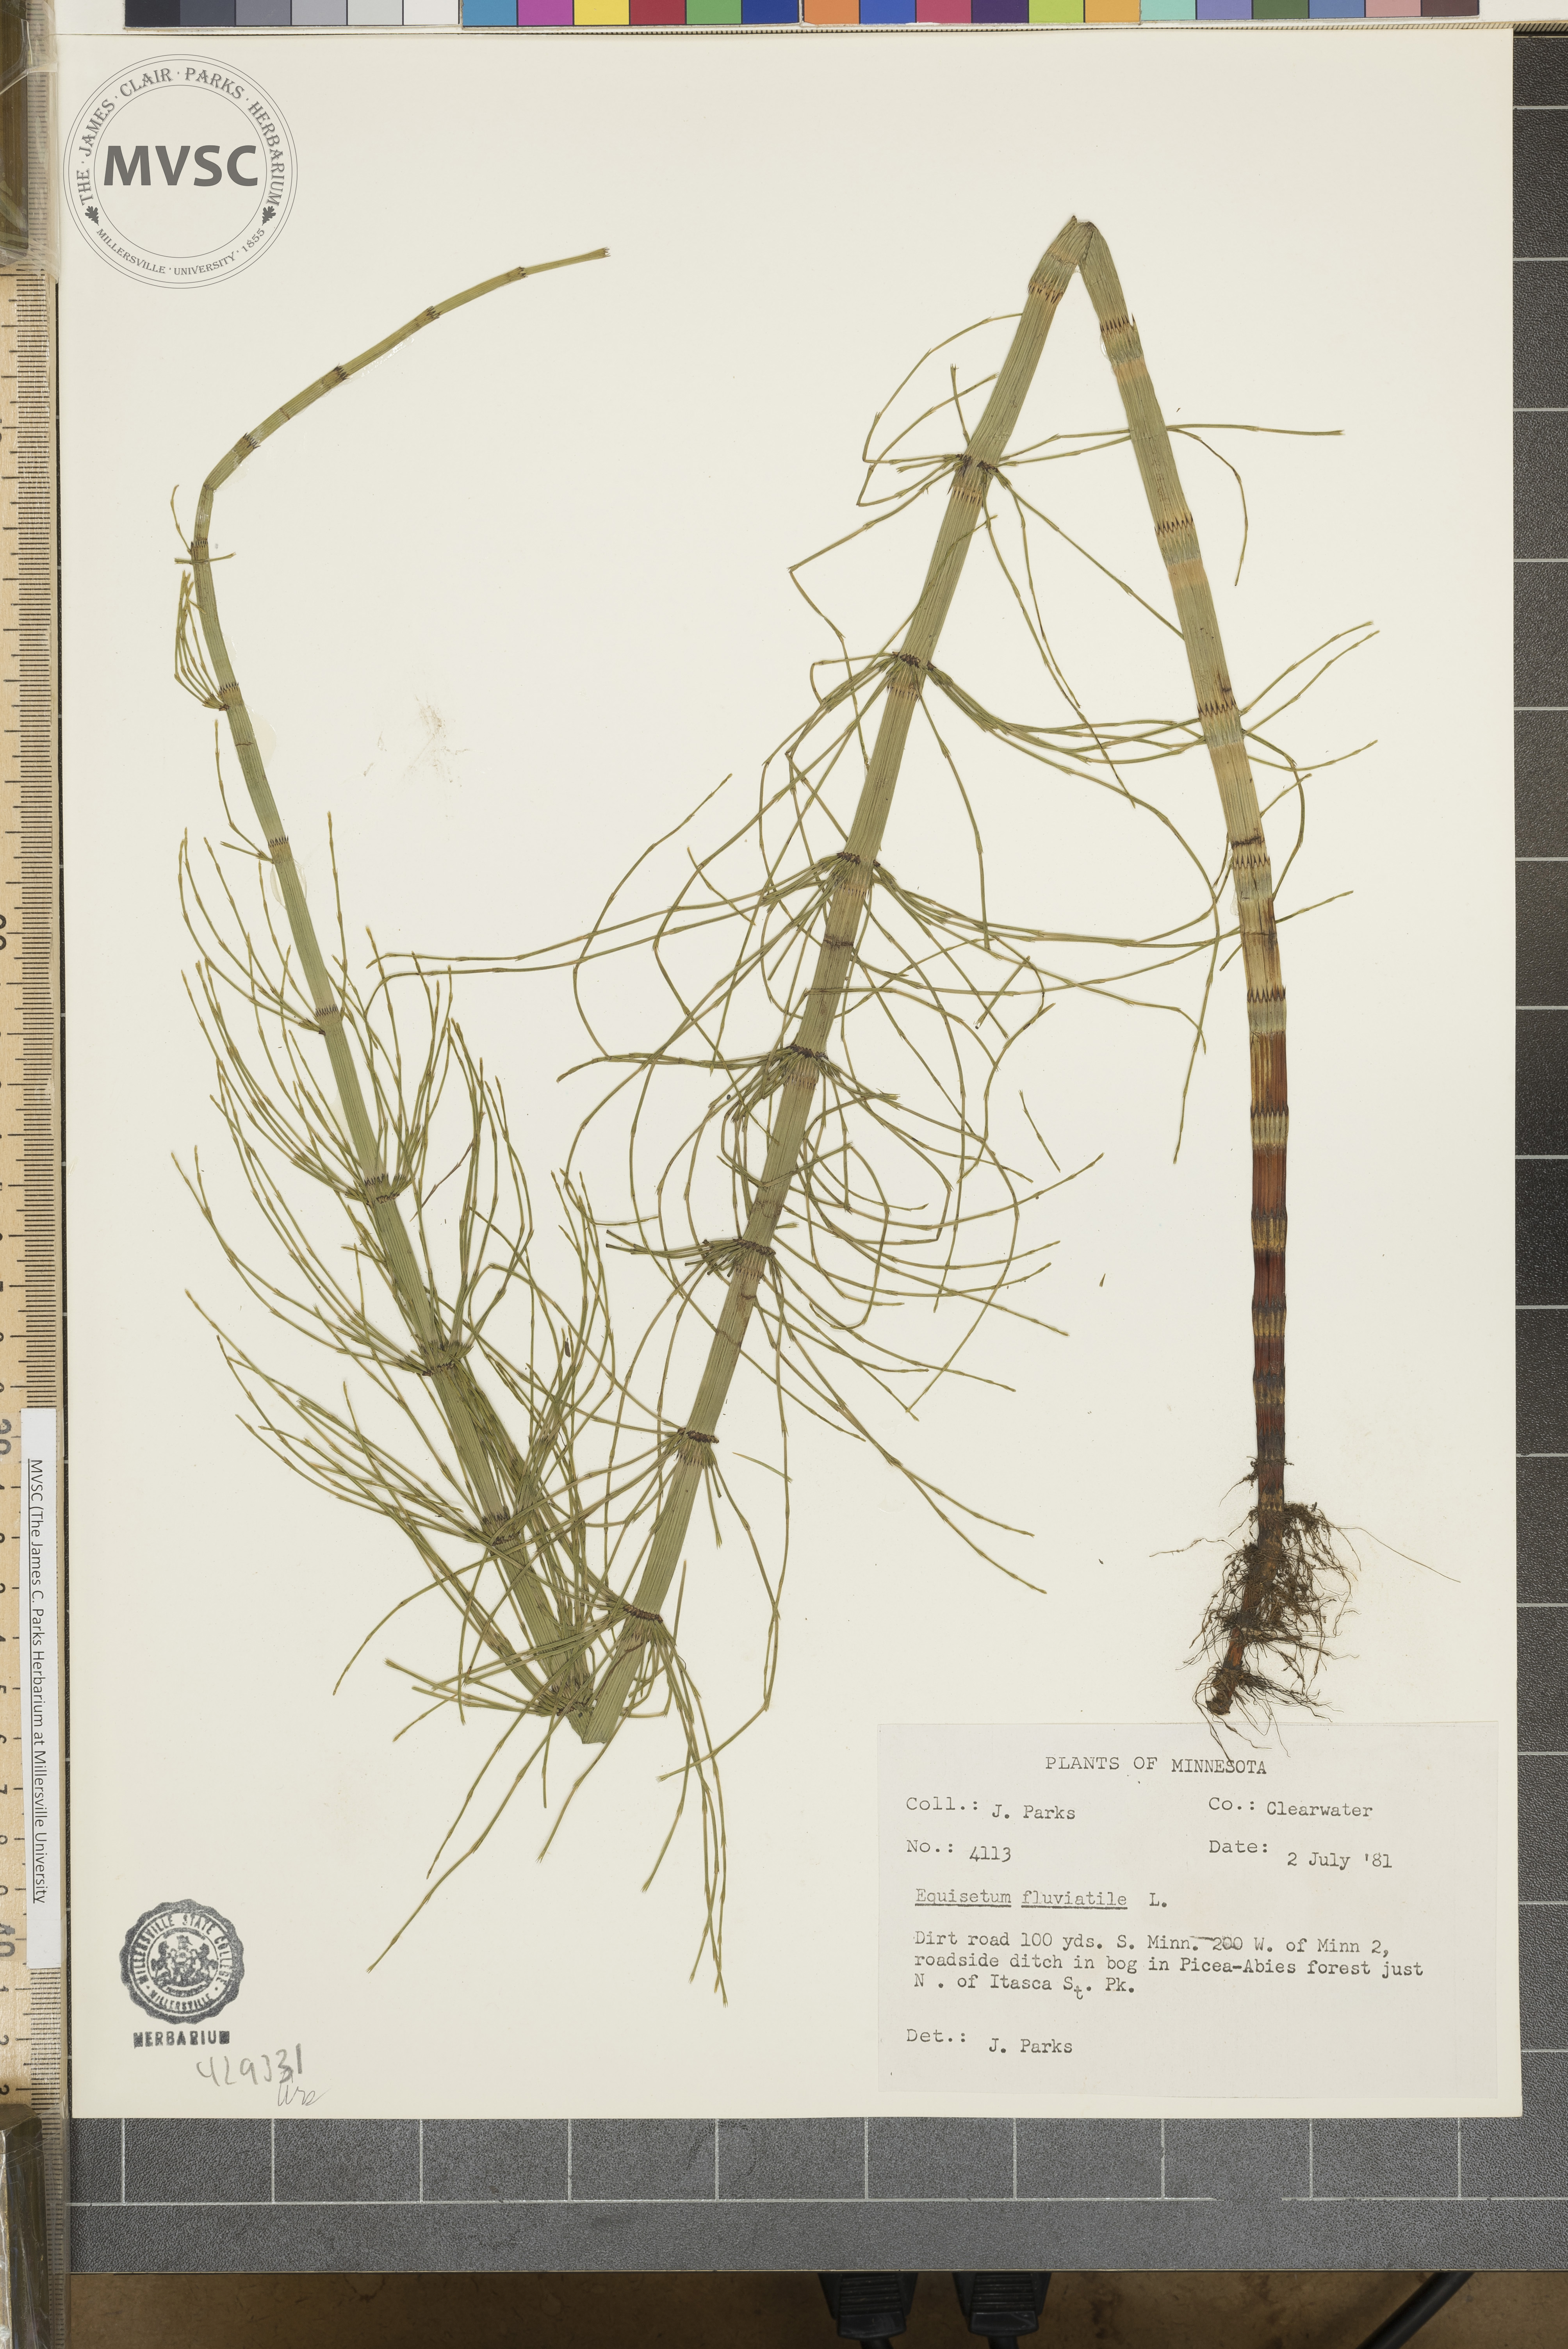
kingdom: Plantae
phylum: Tracheophyta
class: Polypodiopsida
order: Equisetales
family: Equisetaceae
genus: Equisetum
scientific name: Equisetum fluviatile
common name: Water horsetail
